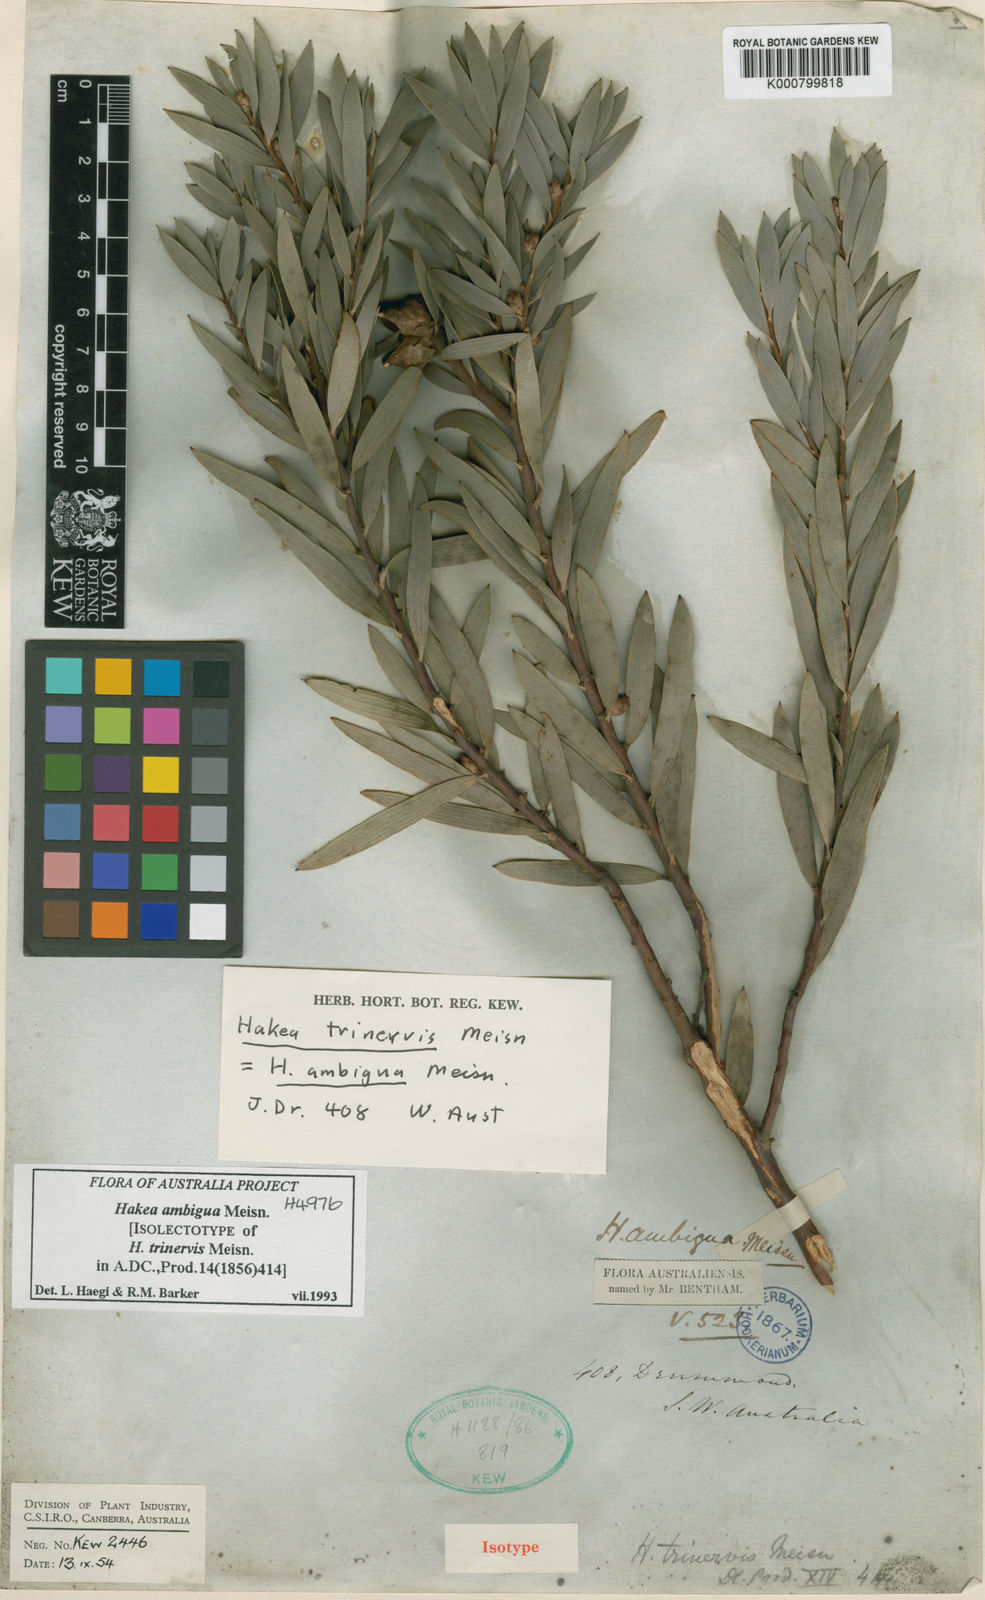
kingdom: Plantae
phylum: Tracheophyta
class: Magnoliopsida
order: Proteales
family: Proteaceae
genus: Hakea
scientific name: Hakea ambigua
